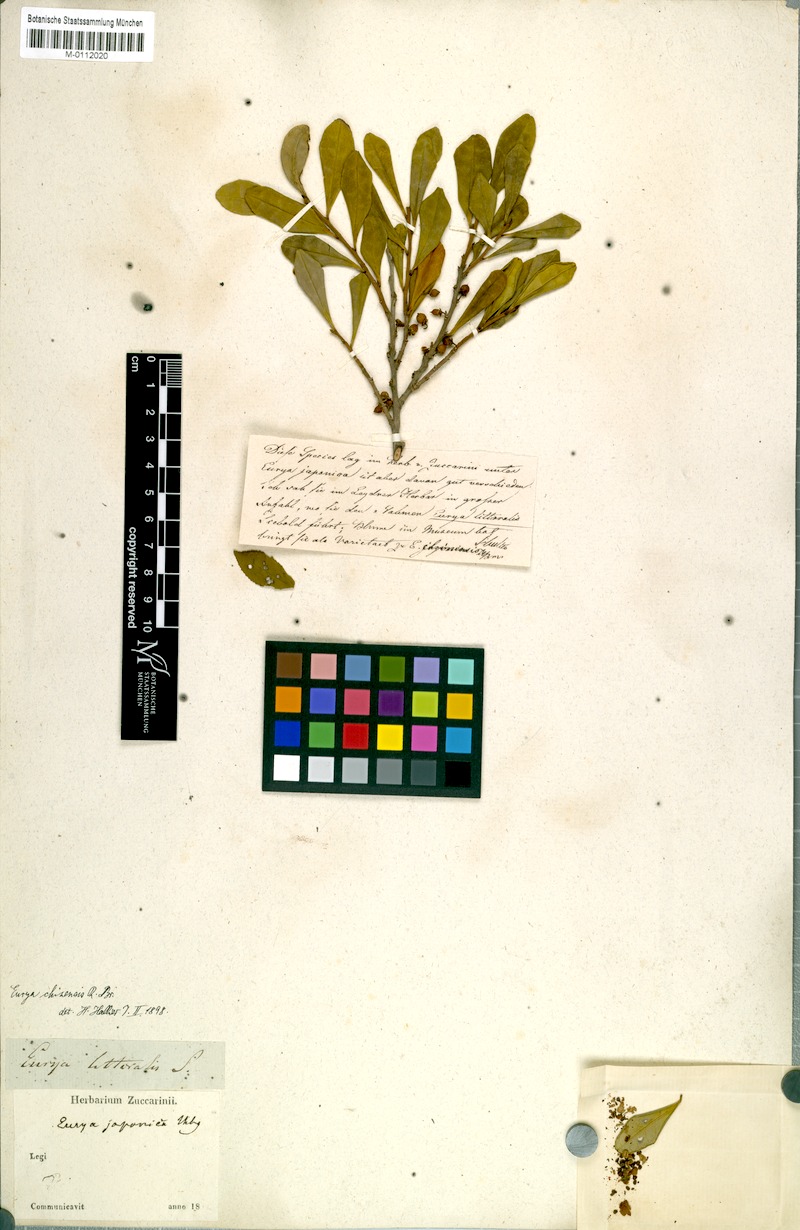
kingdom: Plantae
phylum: Tracheophyta
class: Magnoliopsida
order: Ericales
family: Pentaphylacaceae
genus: Eurya
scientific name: Eurya emarginata
